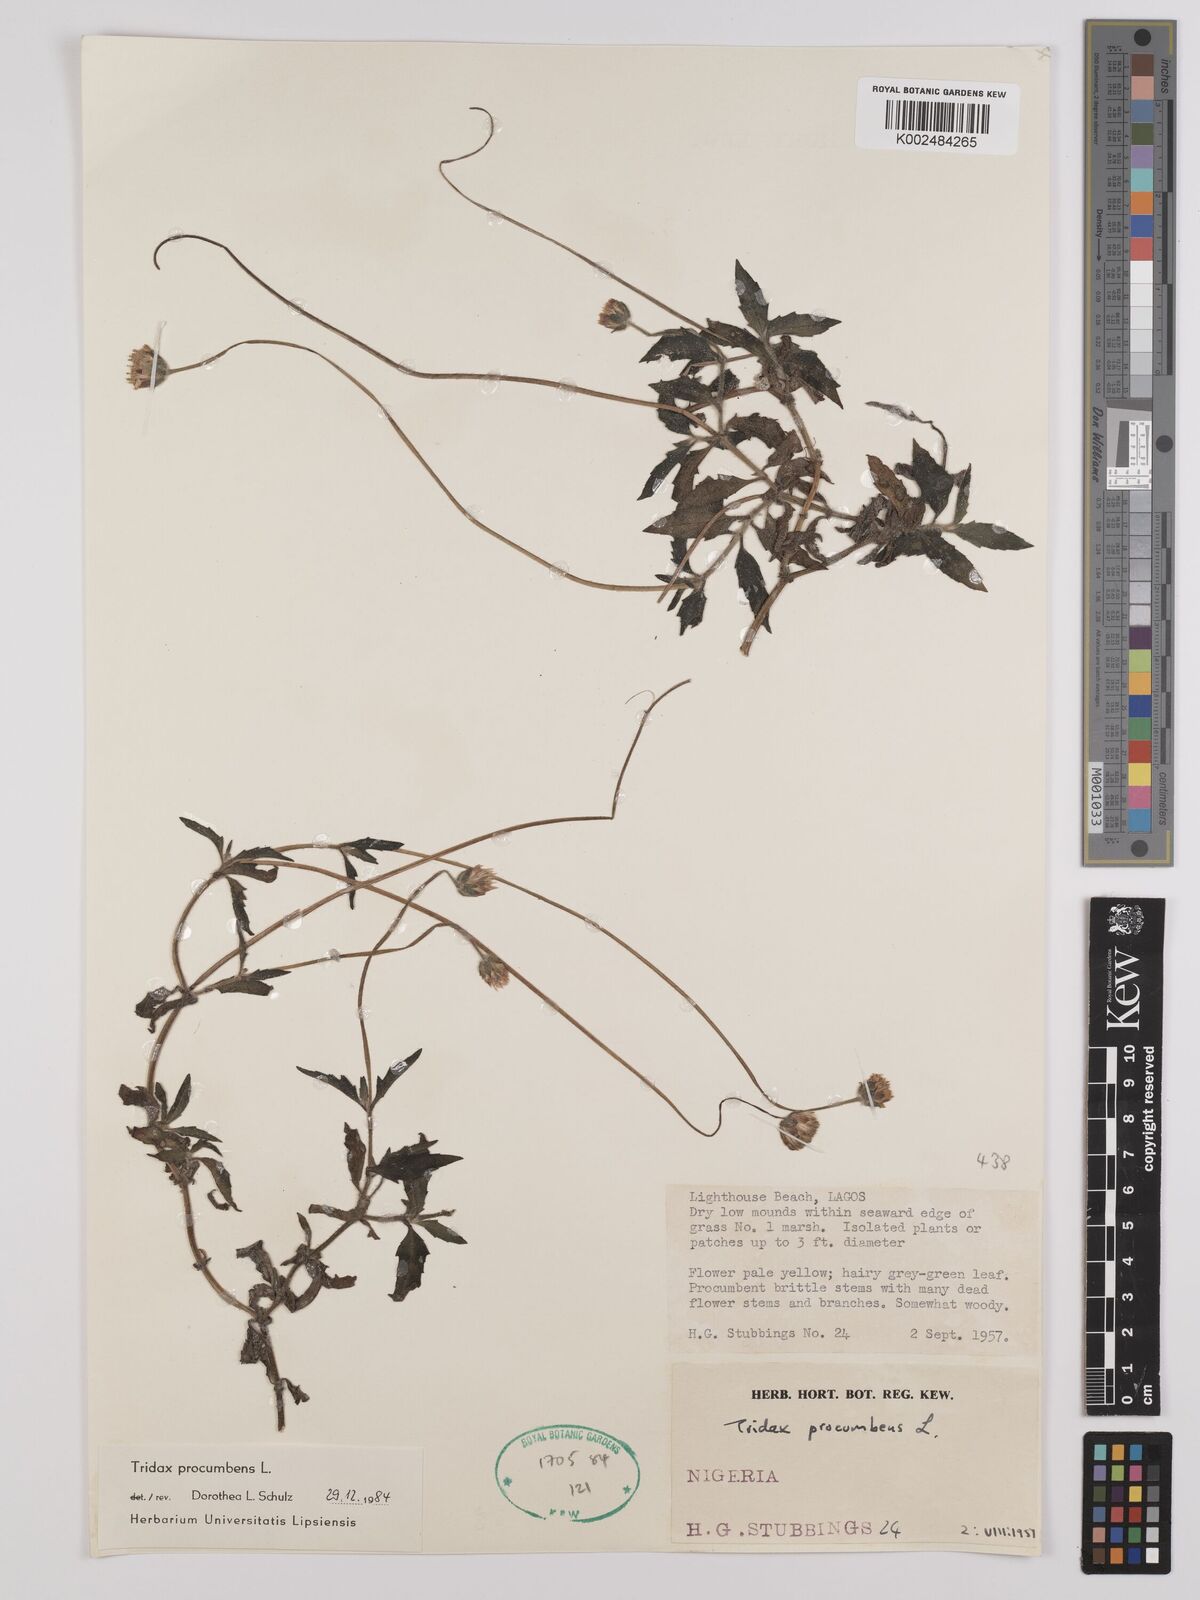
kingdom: Plantae
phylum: Tracheophyta
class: Magnoliopsida
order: Asterales
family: Asteraceae
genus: Tridax
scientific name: Tridax procumbens
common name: Coatbuttons
